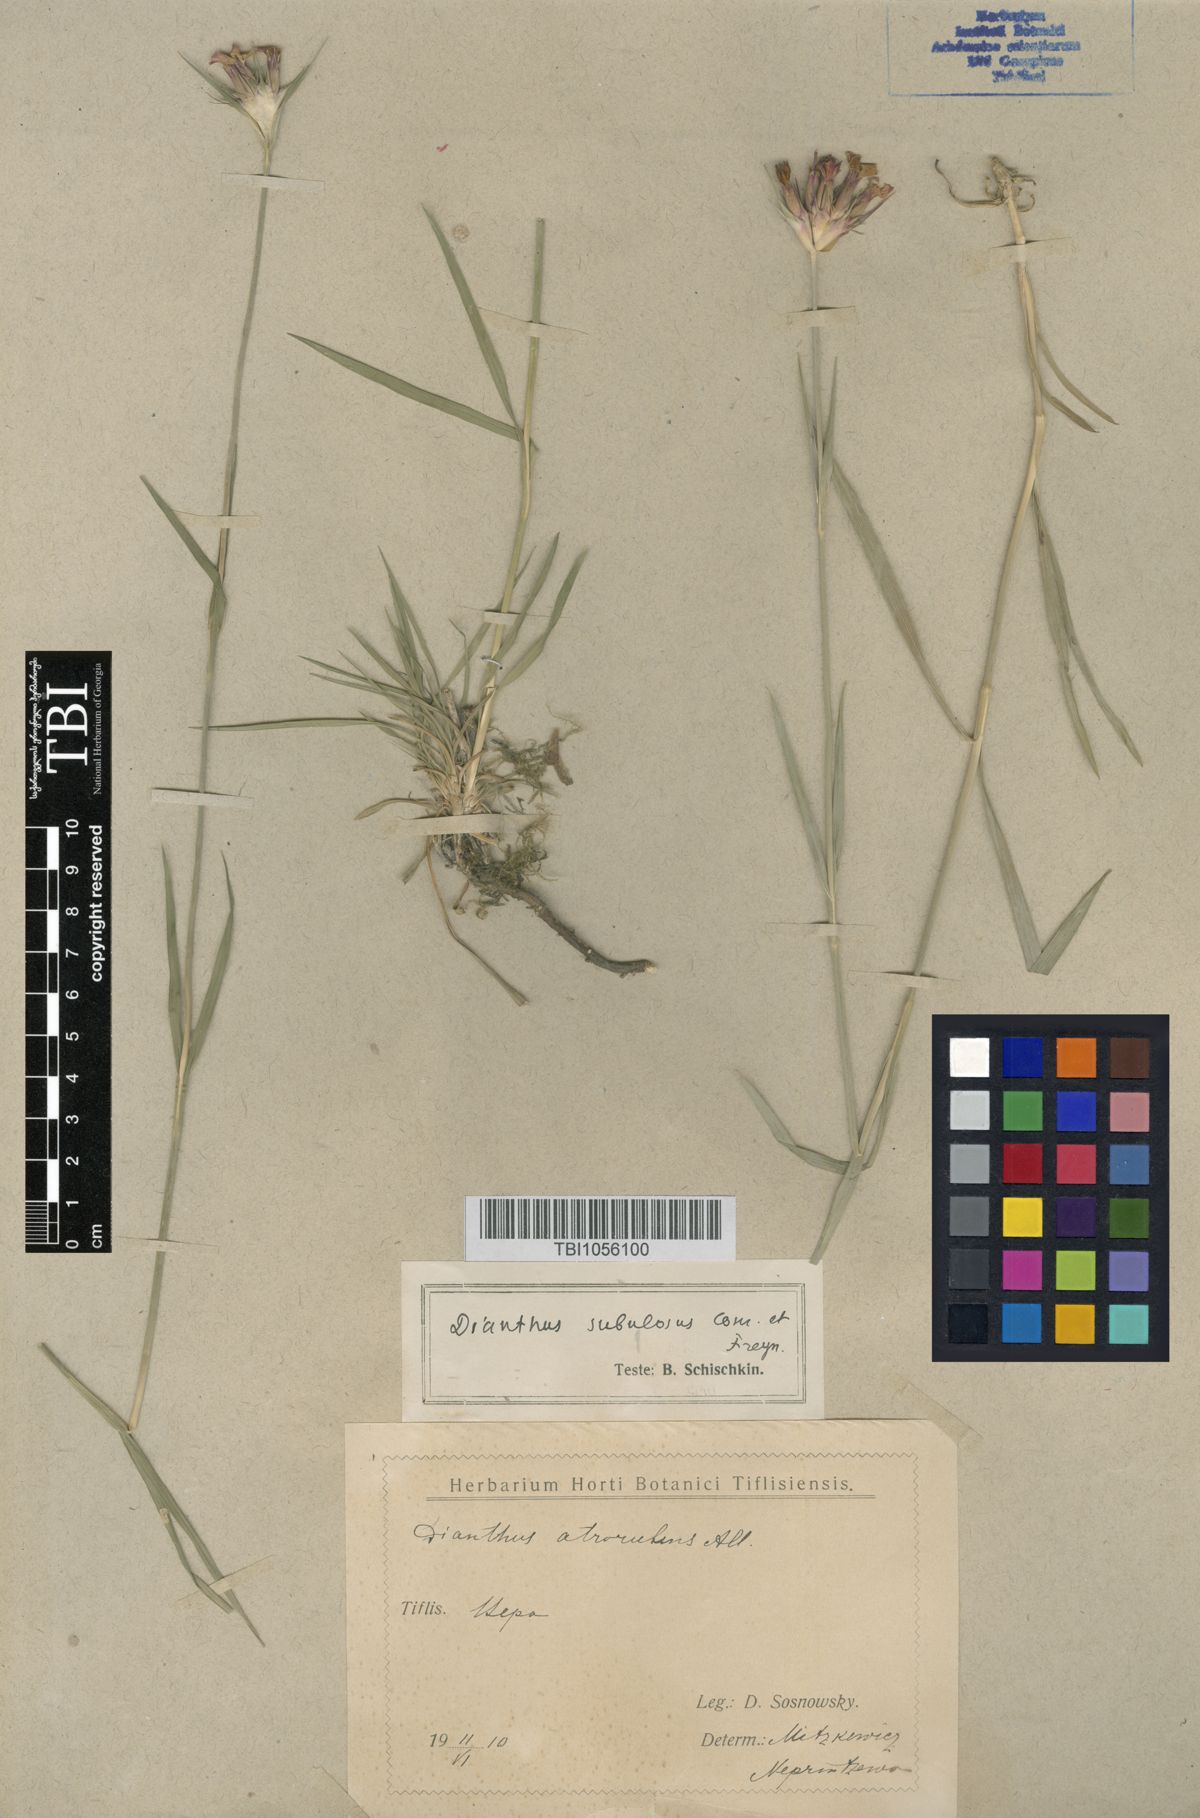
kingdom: Plantae
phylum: Tracheophyta
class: Magnoliopsida
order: Caryophyllales
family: Caryophyllaceae
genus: Dianthus
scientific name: Dianthus subulosus
